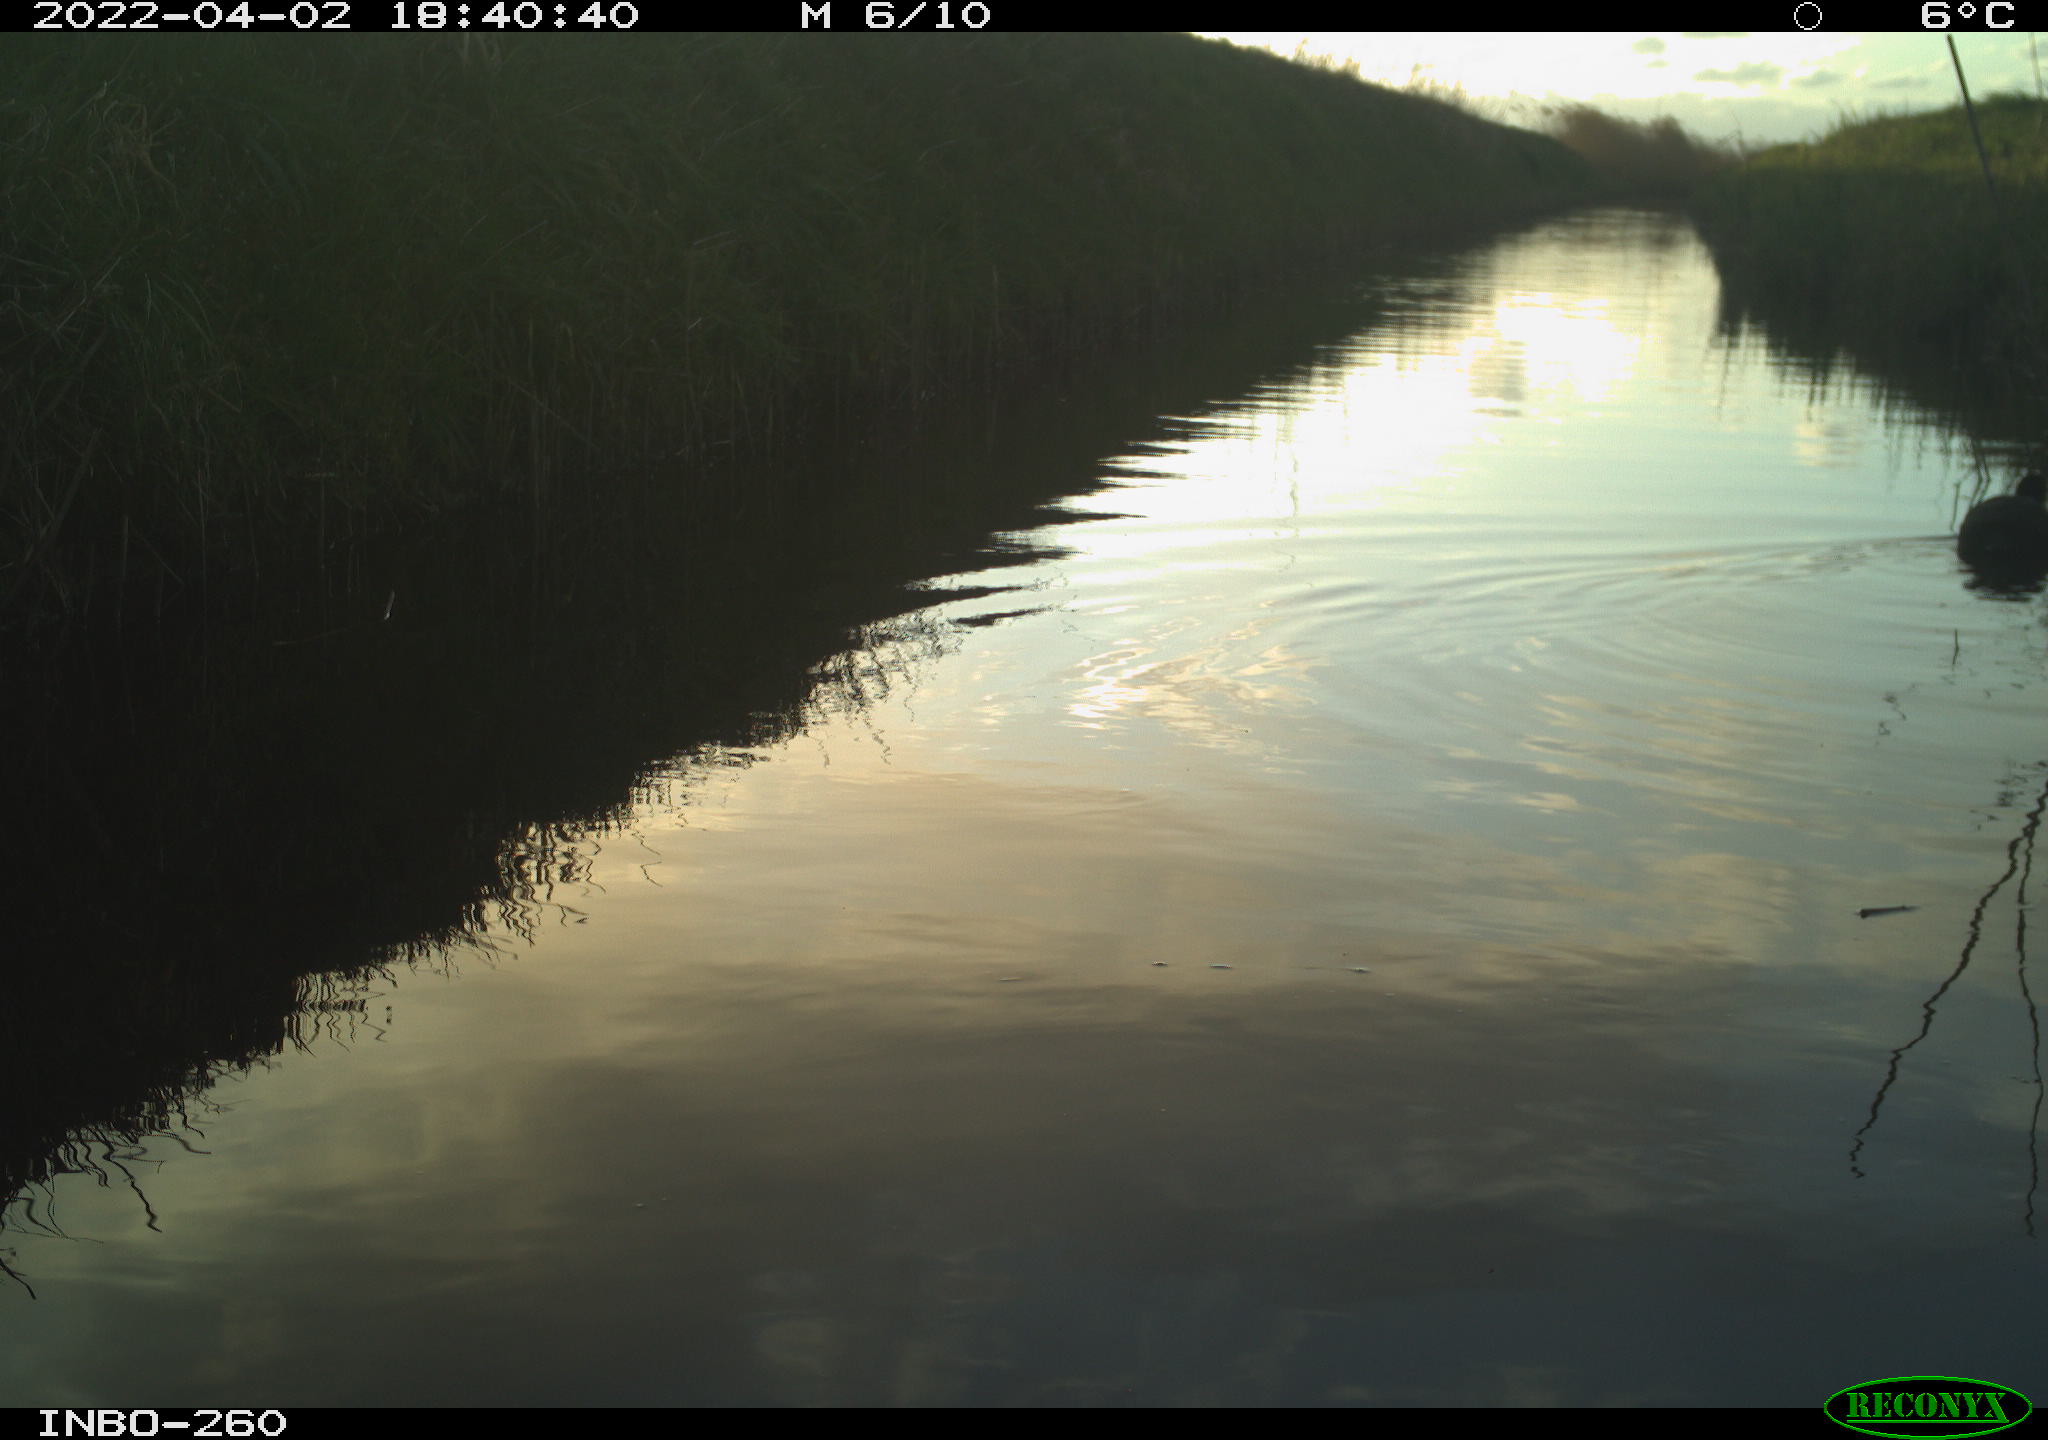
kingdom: Animalia
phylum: Chordata
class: Aves
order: Gruiformes
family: Rallidae
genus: Fulica
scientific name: Fulica atra
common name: Eurasian coot
